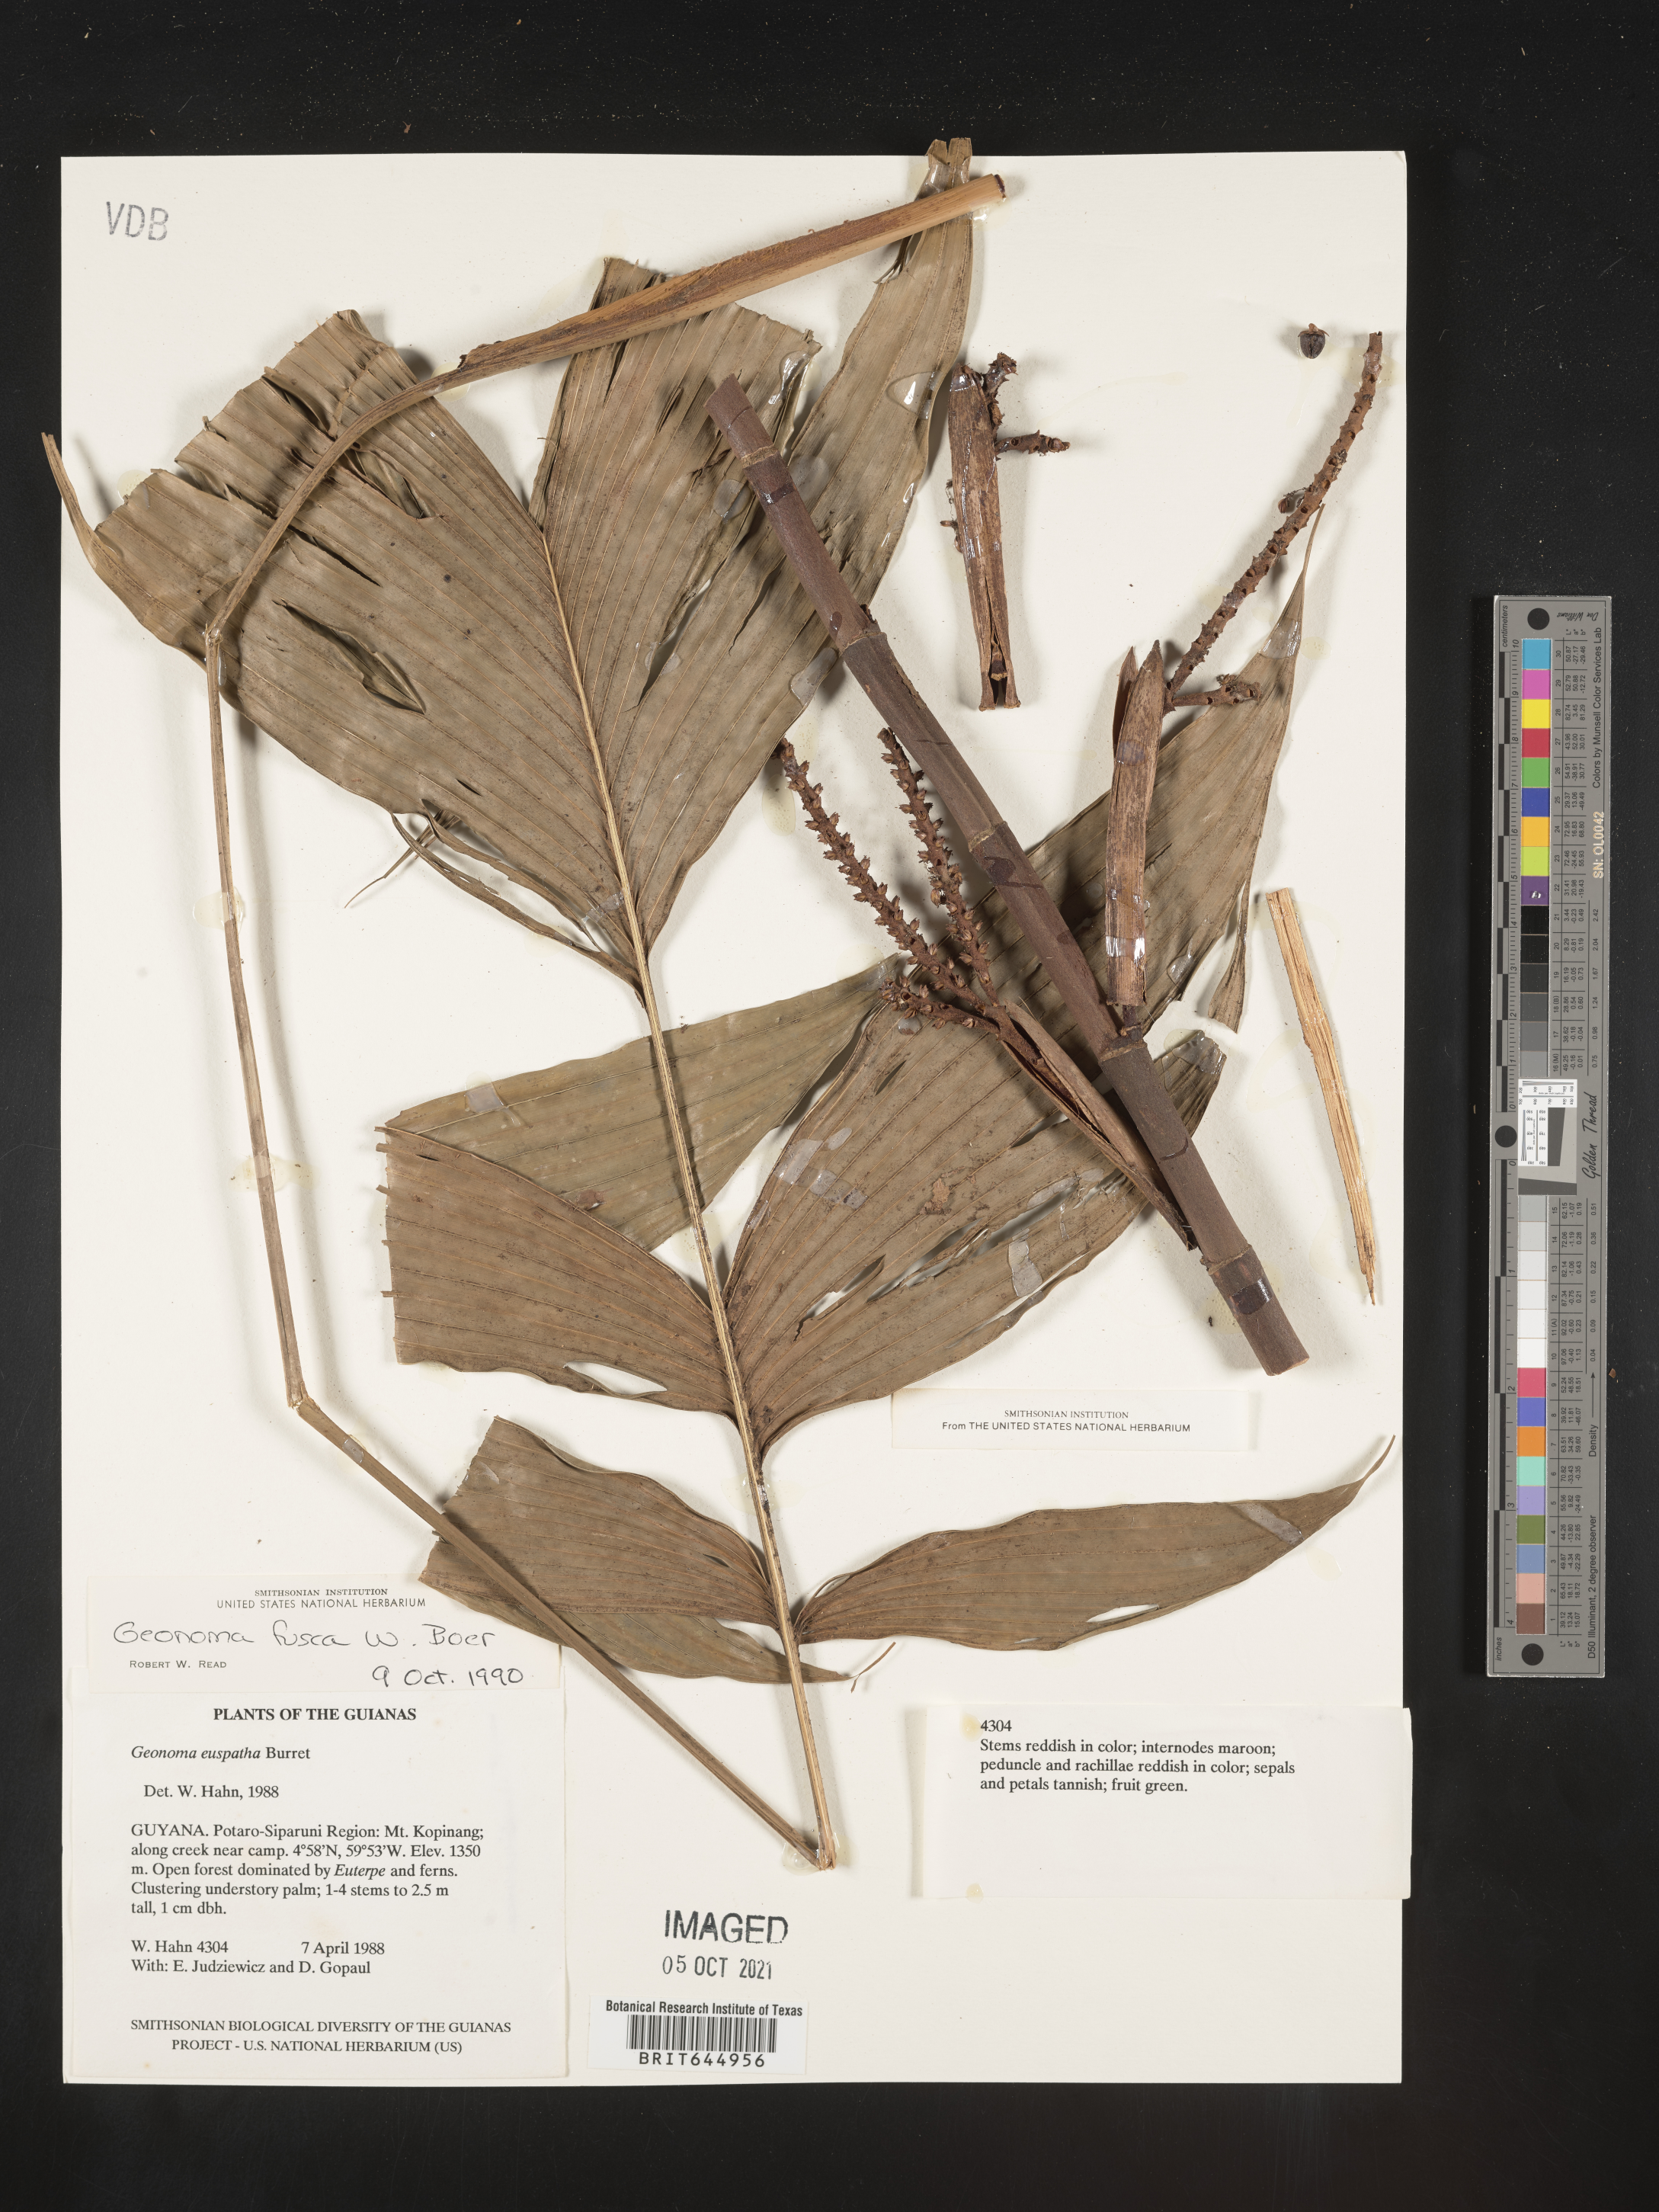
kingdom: Plantae
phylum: Tracheophyta
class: Liliopsida
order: Arecales
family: Arecaceae
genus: Geonoma
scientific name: Geonoma aspidiifolia
